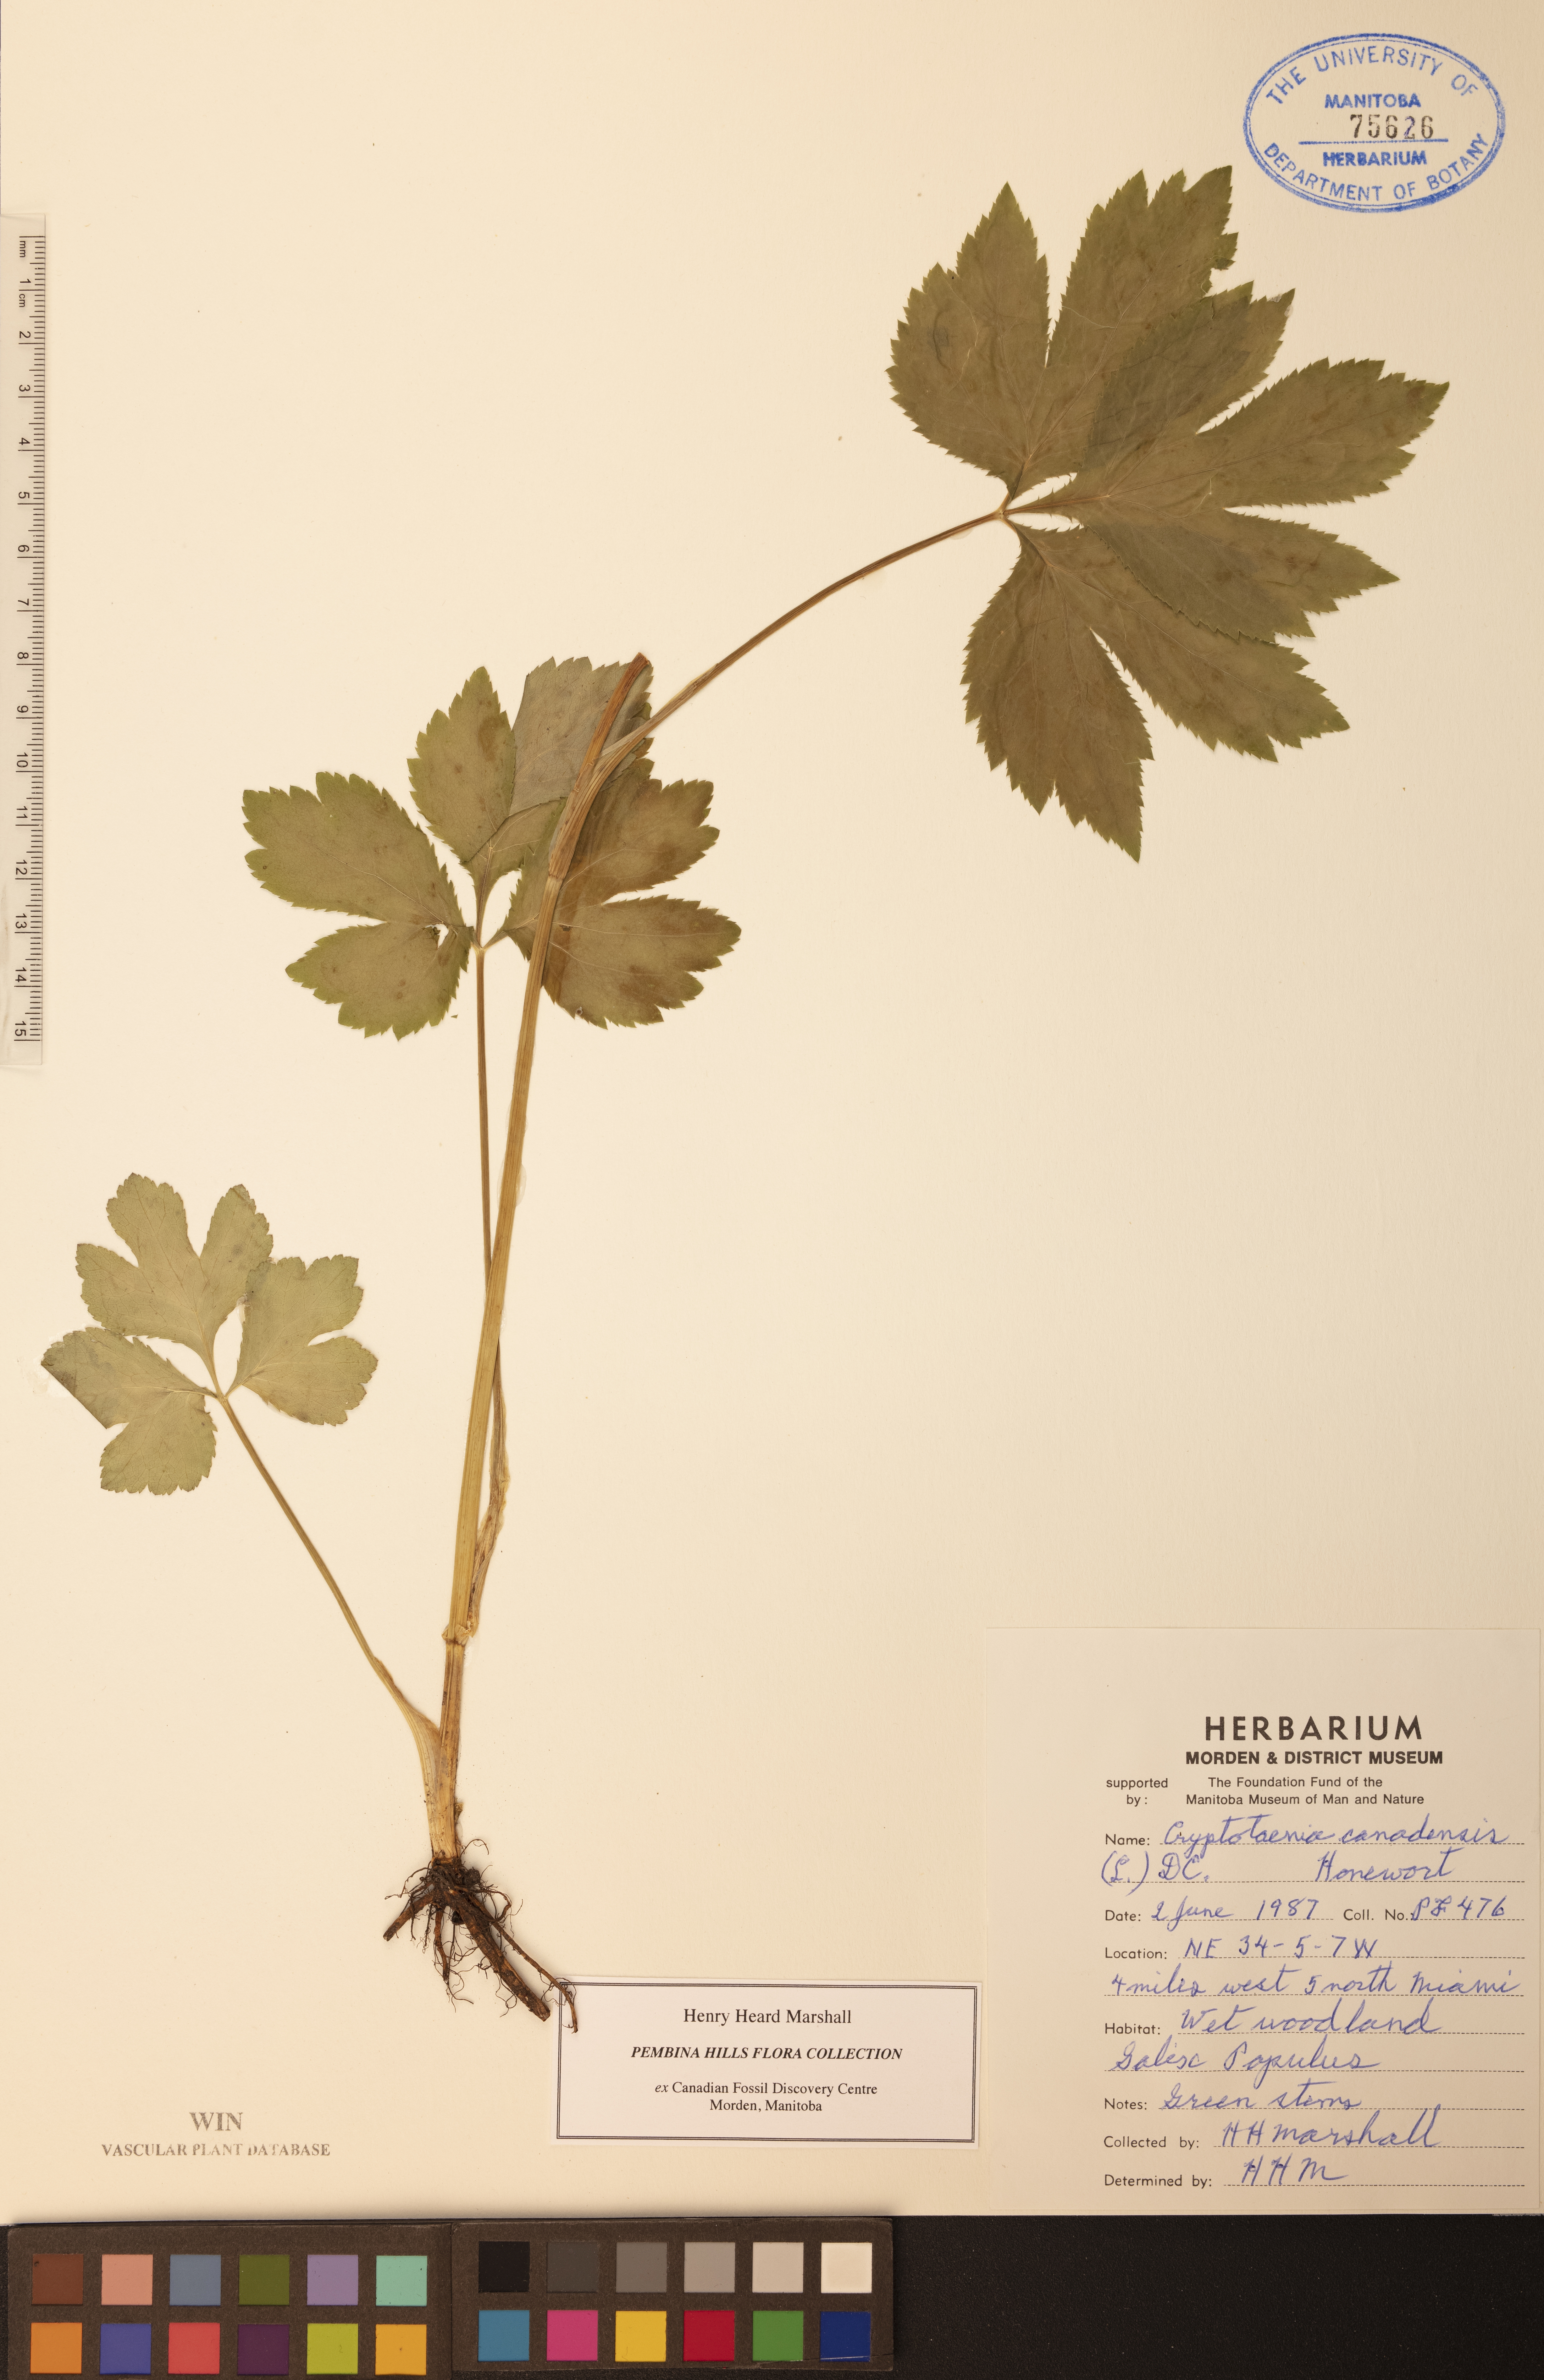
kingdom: Plantae
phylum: Tracheophyta
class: Magnoliopsida
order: Apiales
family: Apiaceae
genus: Cryptotaenia
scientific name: Cryptotaenia canadensis
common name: Honewort
